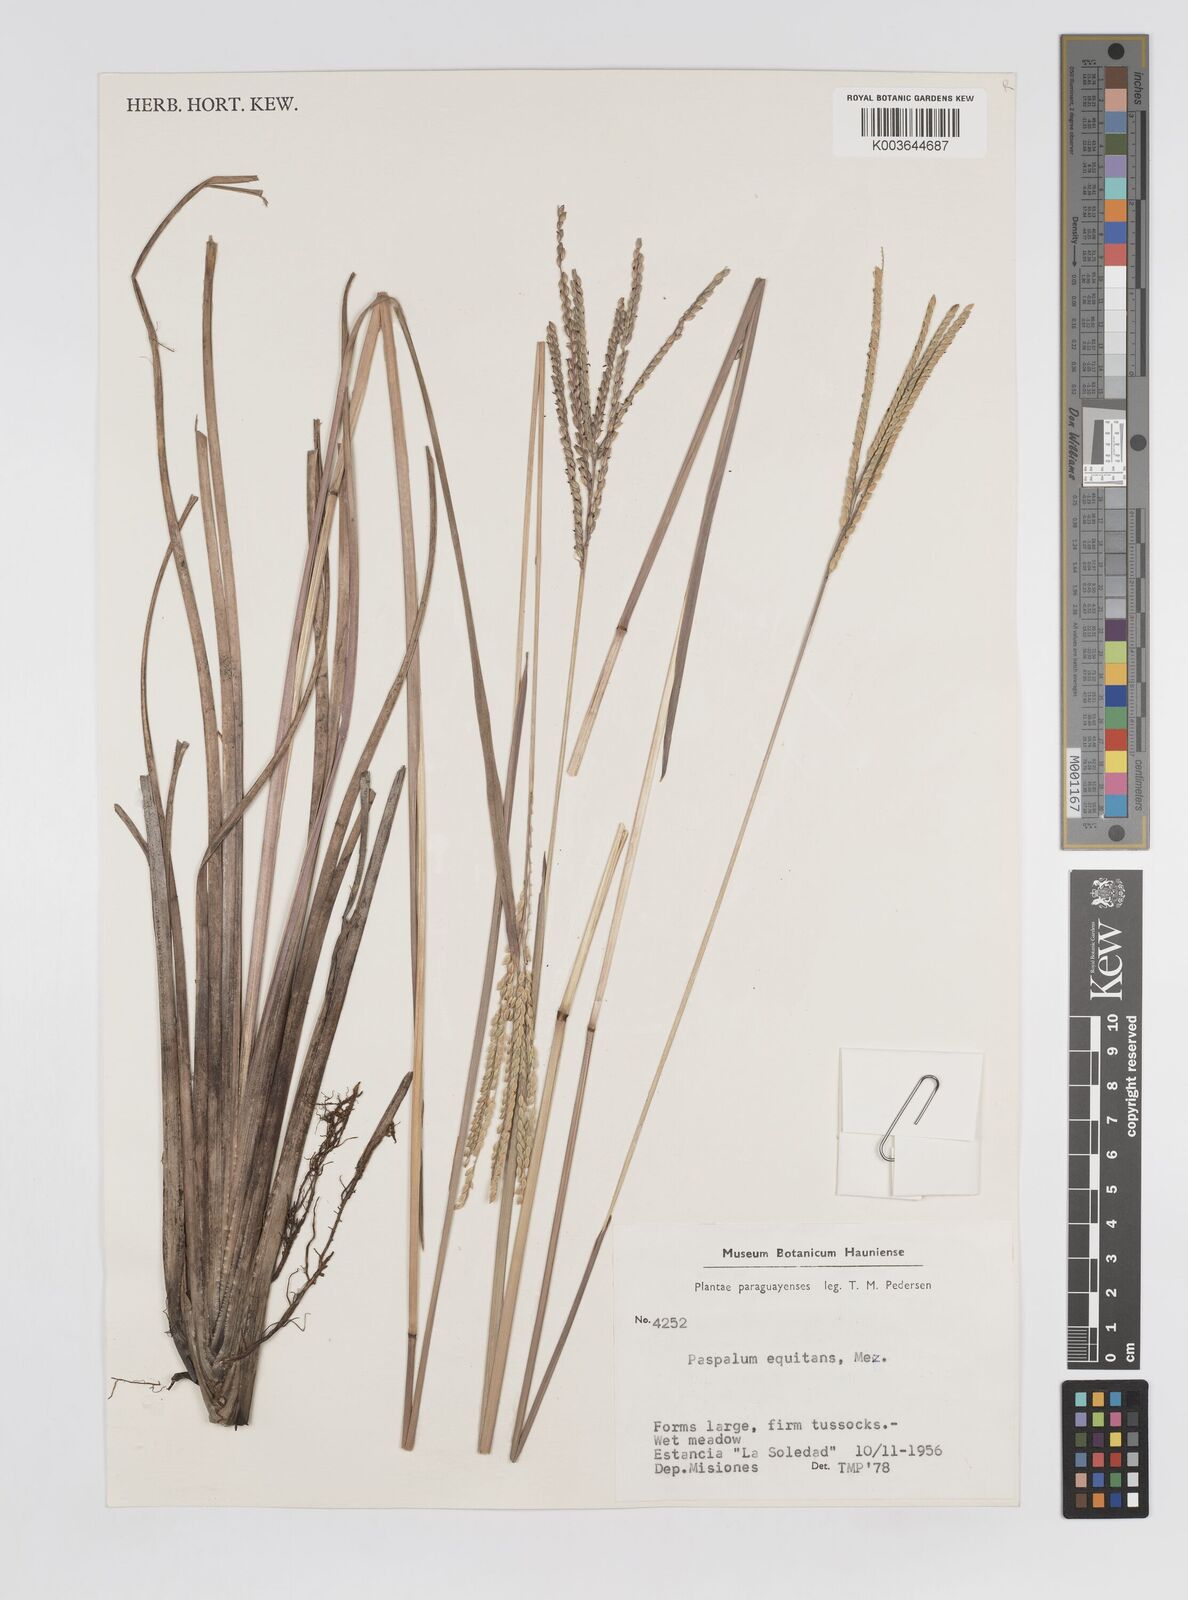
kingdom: Plantae
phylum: Tracheophyta
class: Liliopsida
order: Poales
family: Poaceae
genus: Paspalum
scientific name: Paspalum equitans
